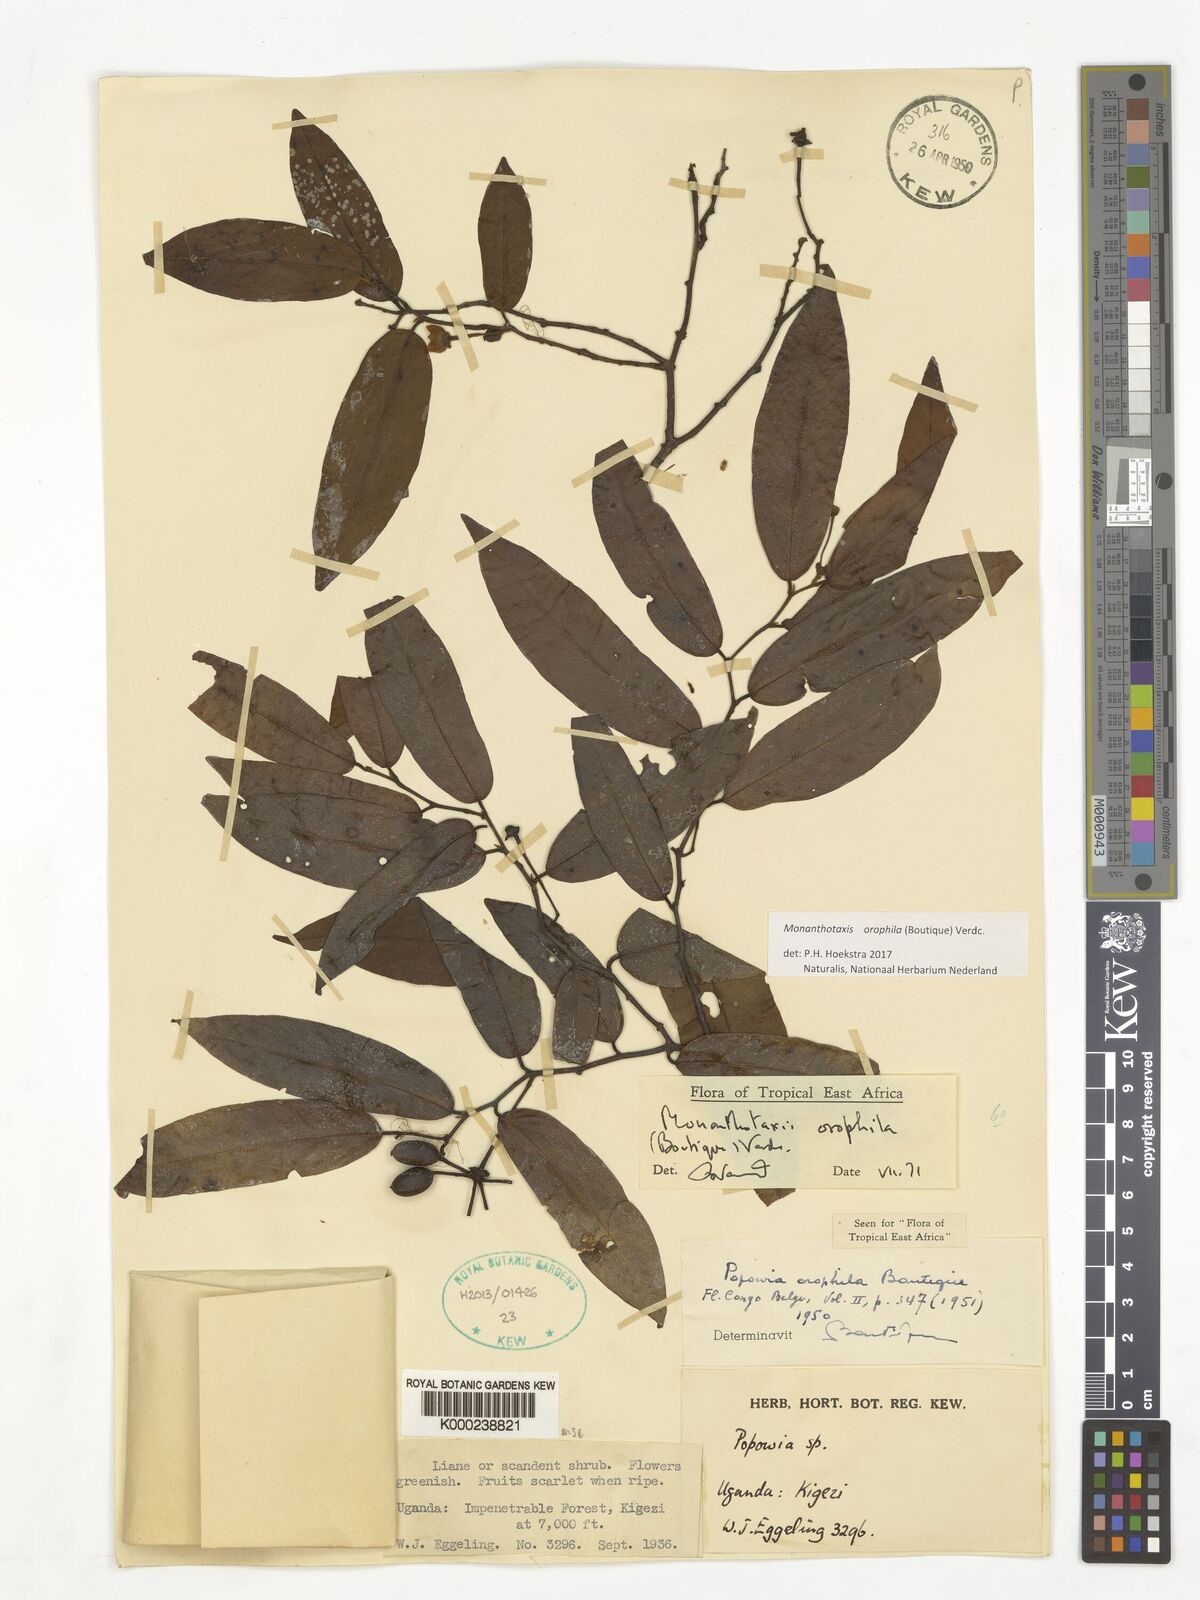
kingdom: Plantae
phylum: Tracheophyta
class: Magnoliopsida
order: Magnoliales
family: Annonaceae
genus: Monanthotaxis
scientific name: Monanthotaxis orophila
